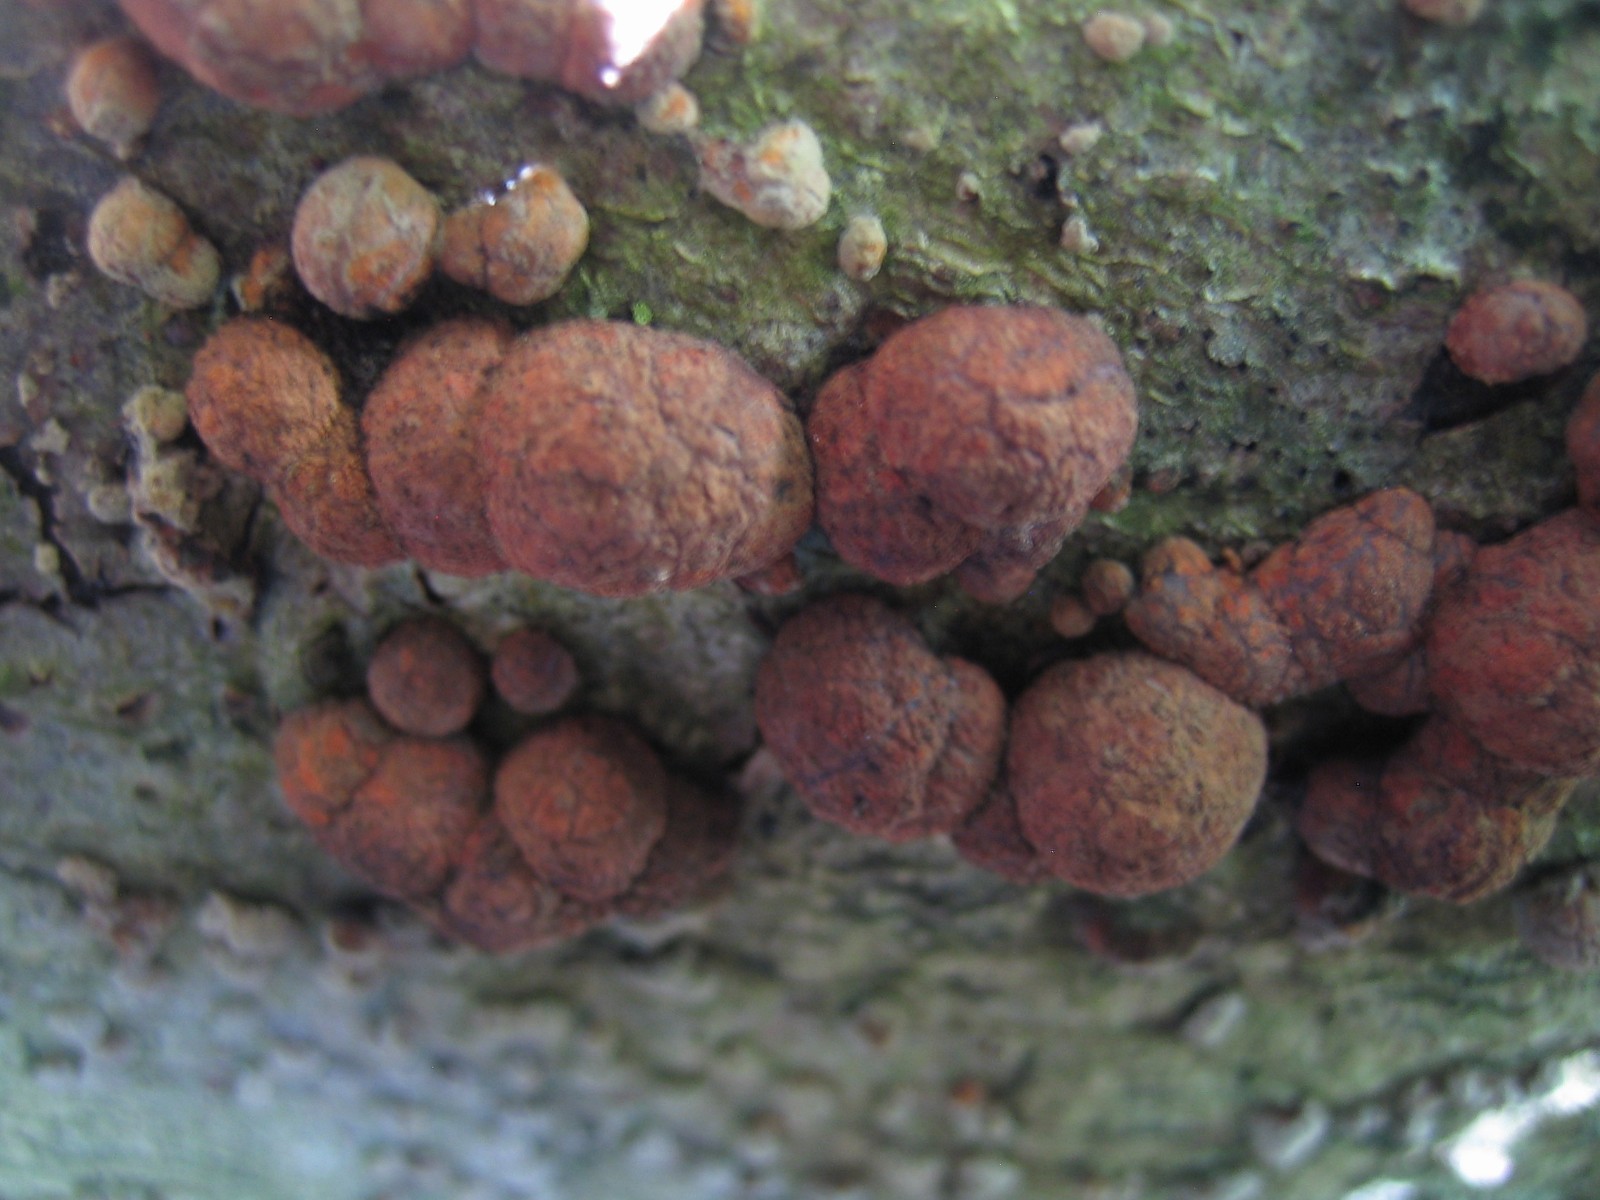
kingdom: Fungi
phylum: Ascomycota
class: Sordariomycetes
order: Xylariales
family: Hypoxylaceae
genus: Hypoxylon
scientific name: Hypoxylon fragiforme
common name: kuljordbær
